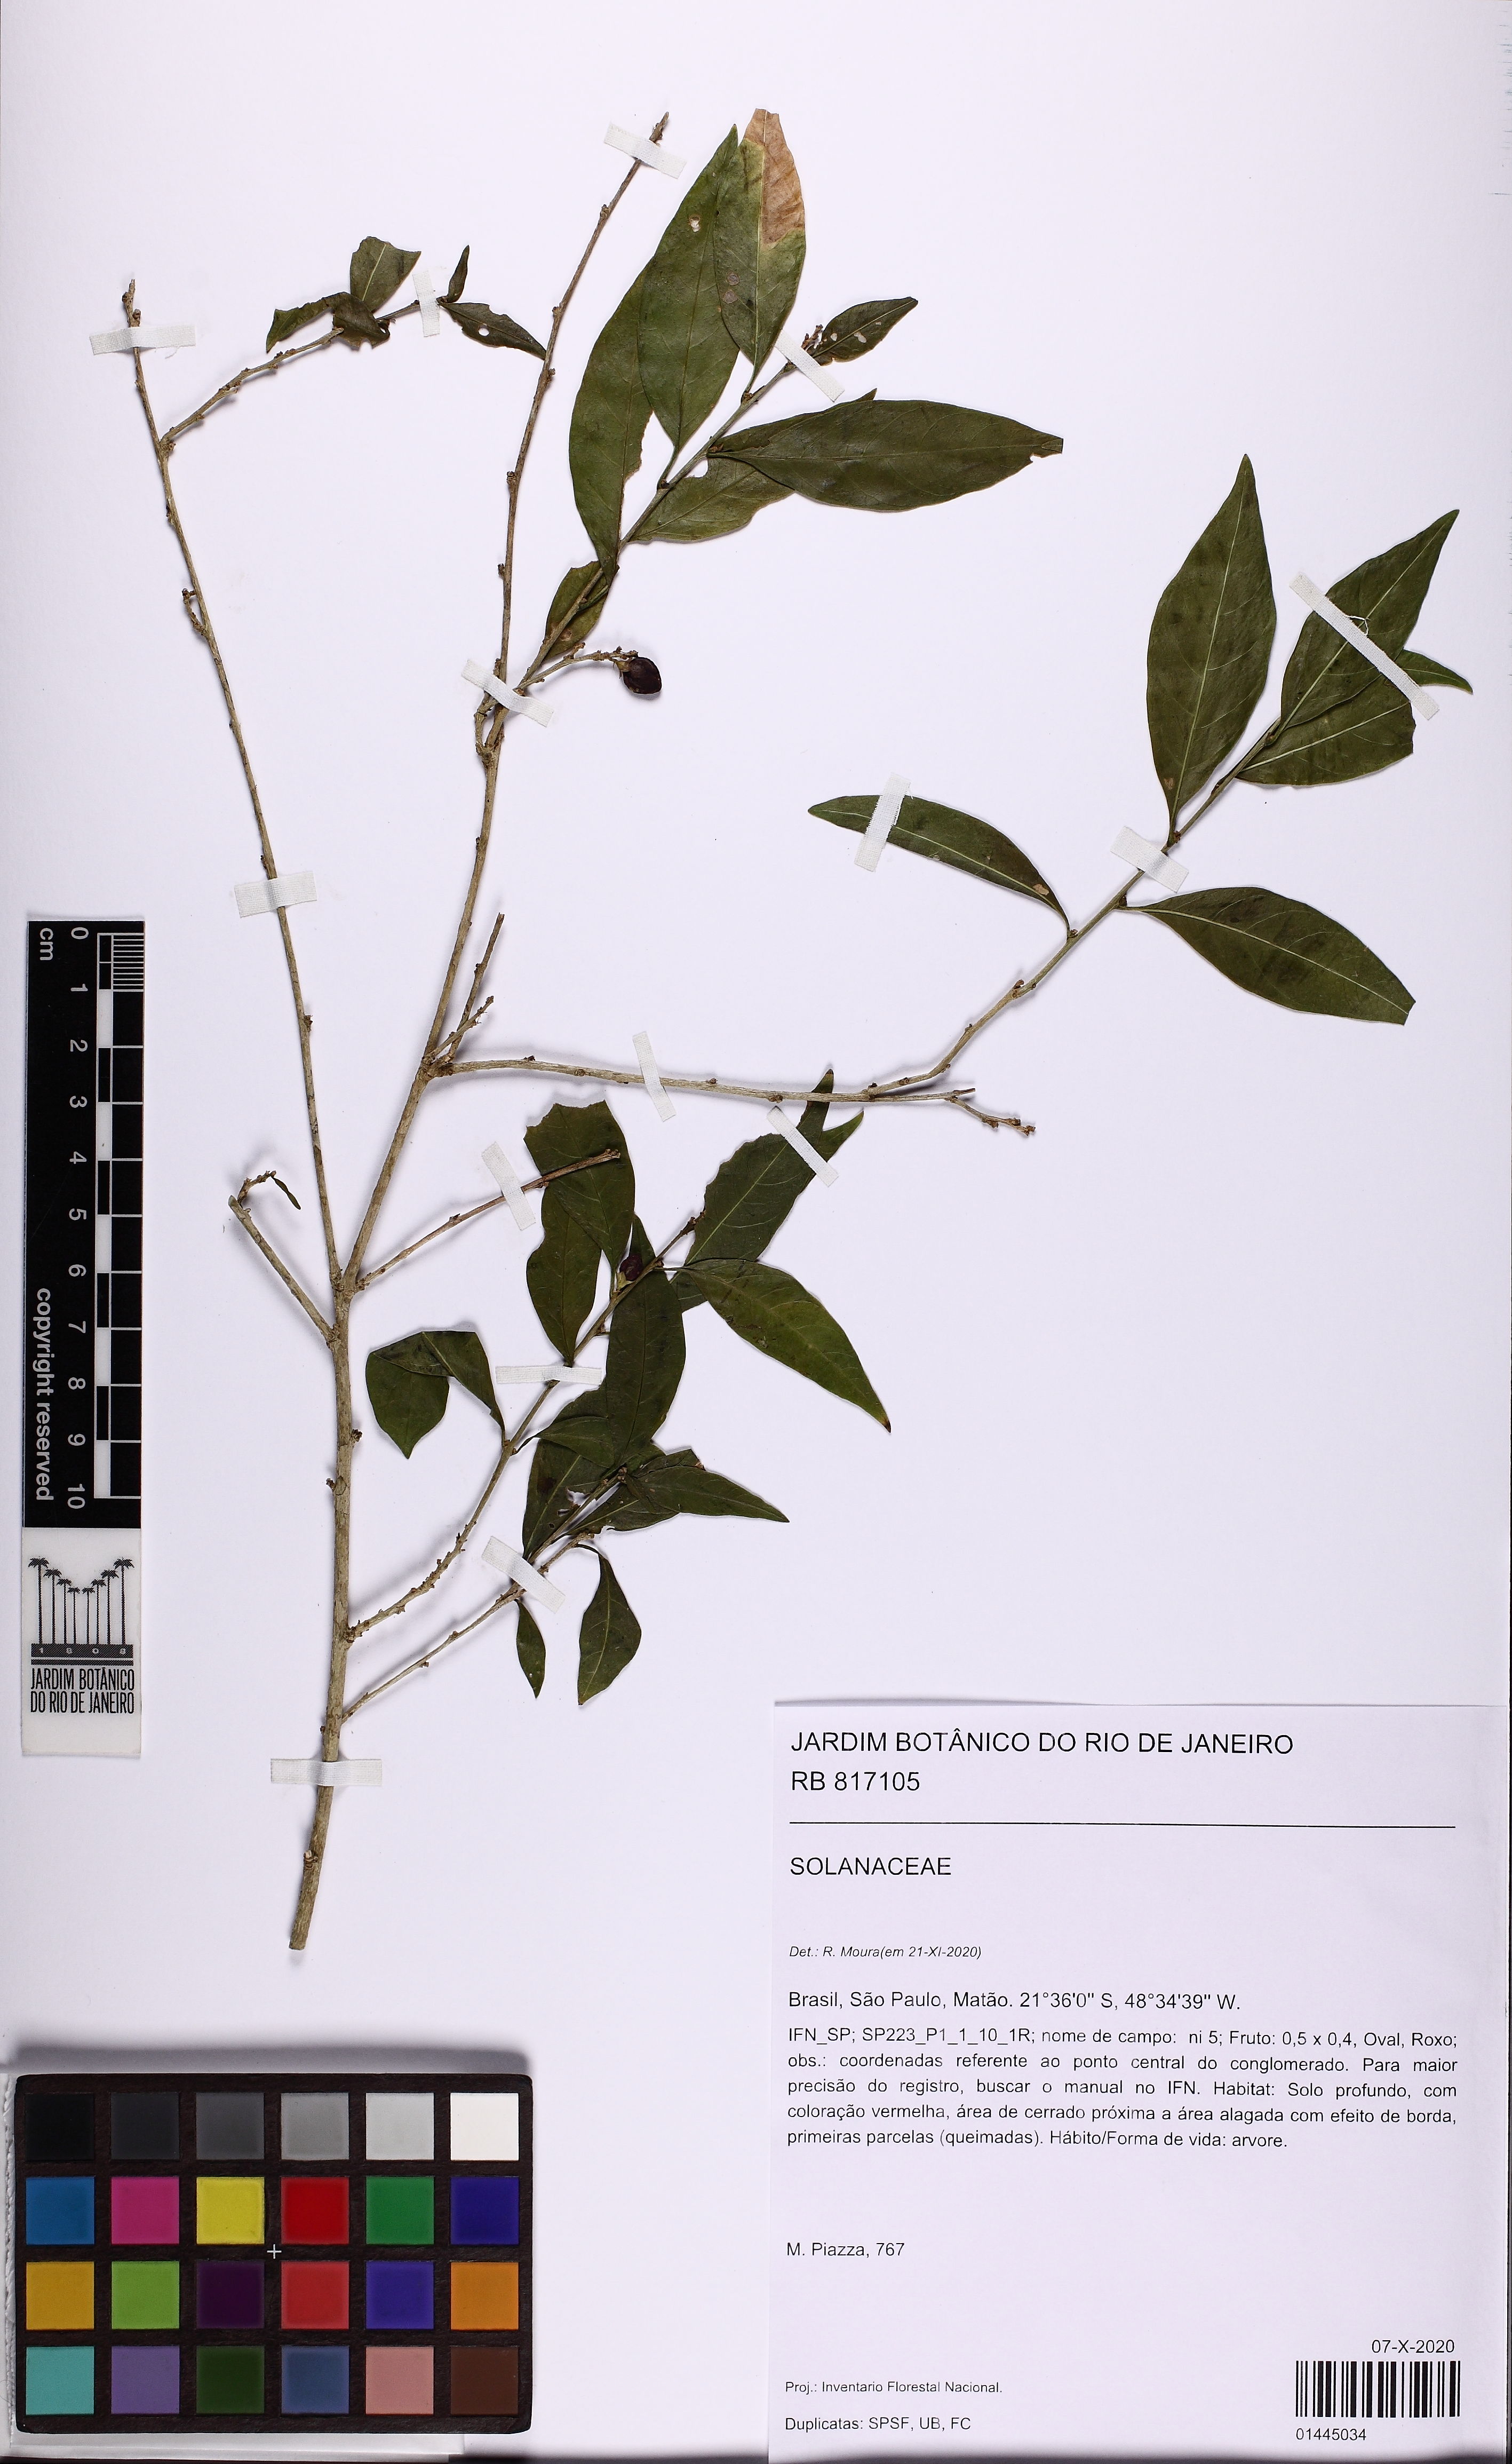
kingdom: Plantae
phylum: Tracheophyta
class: Magnoliopsida
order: Solanales
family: Solanaceae
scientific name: Solanaceae
